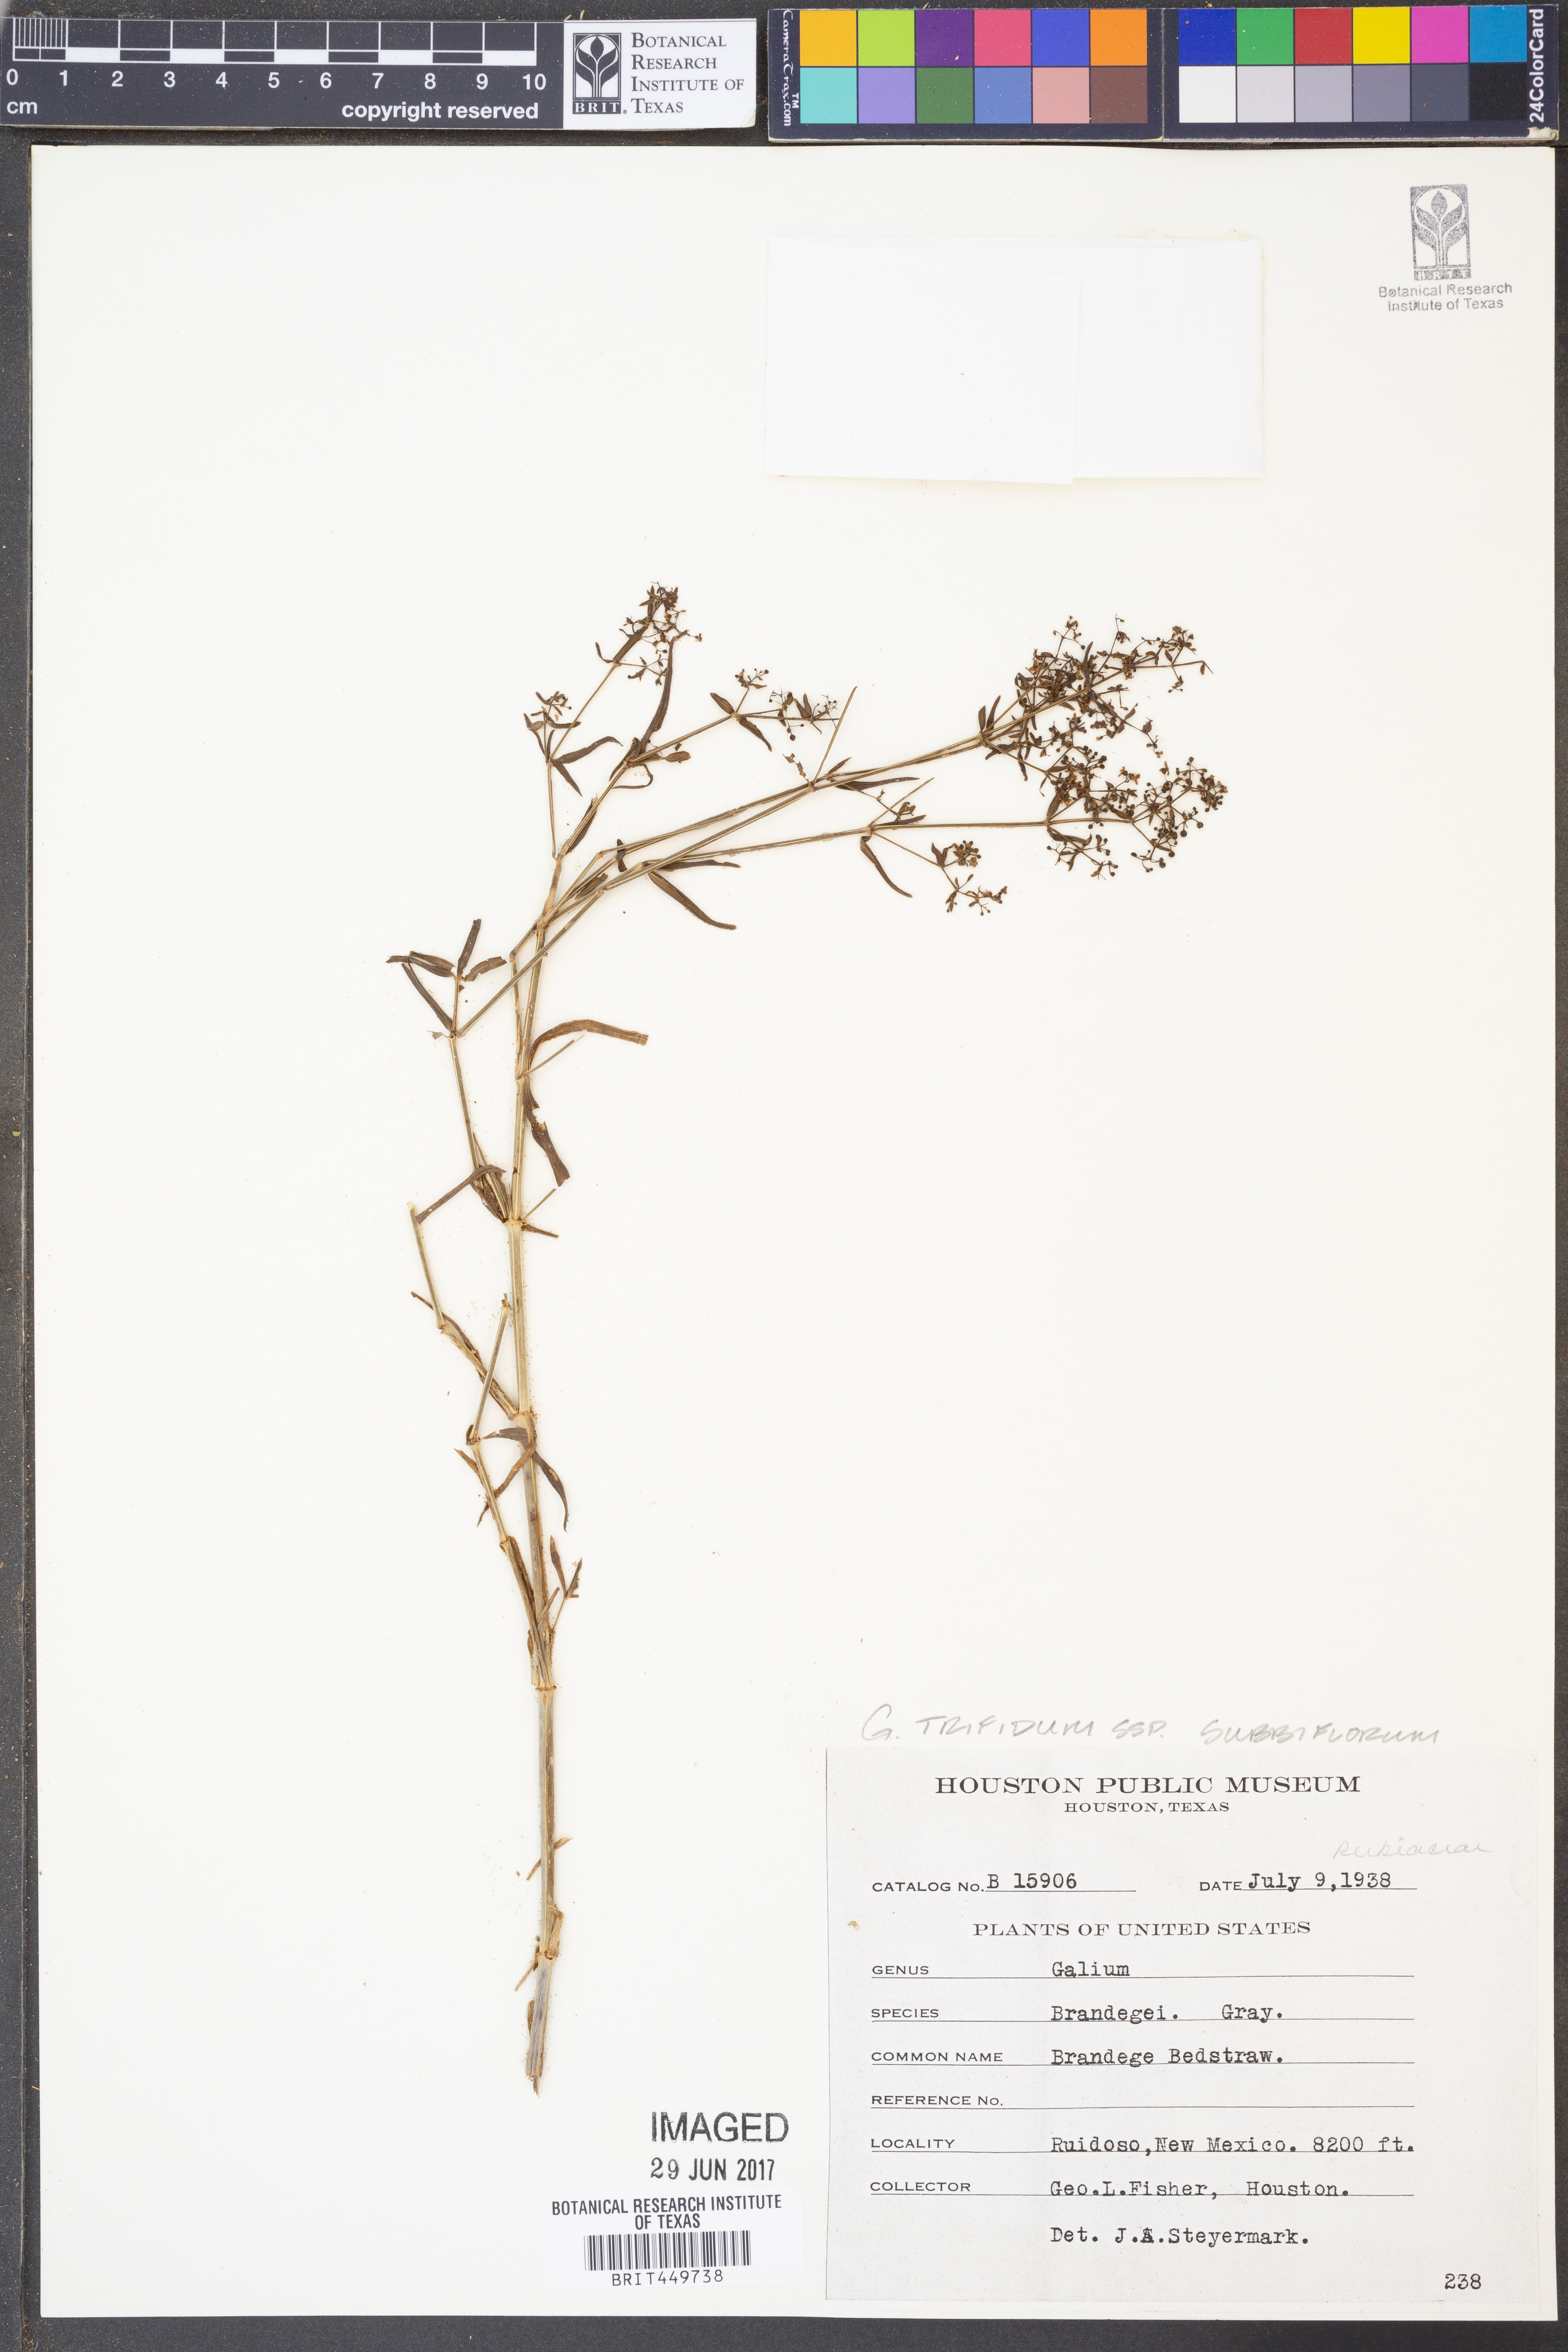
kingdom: Plantae
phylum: Tracheophyta
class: Magnoliopsida
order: Gentianales
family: Rubiaceae
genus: Galium
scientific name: Galium trifidum
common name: Small bedstraw
